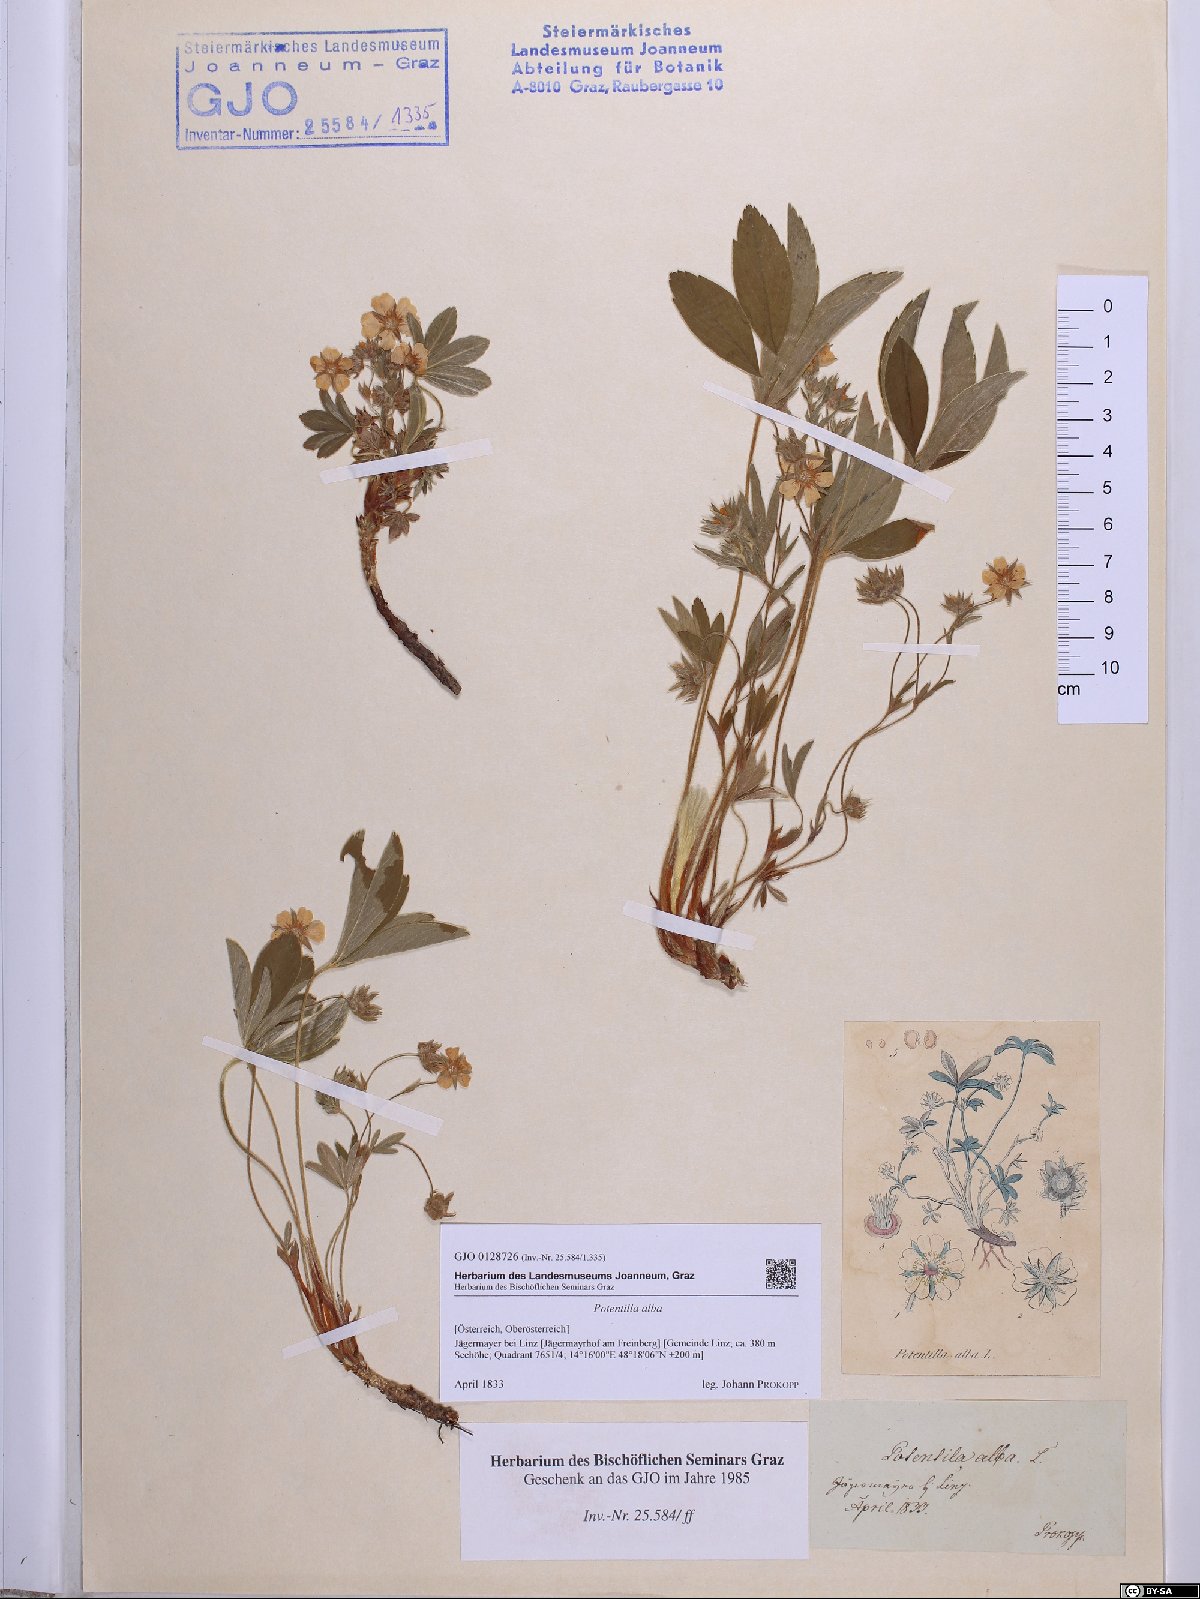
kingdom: Plantae
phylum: Tracheophyta
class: Magnoliopsida
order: Rosales
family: Rosaceae
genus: Potentilla
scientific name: Potentilla alba
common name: White cinquefoil
